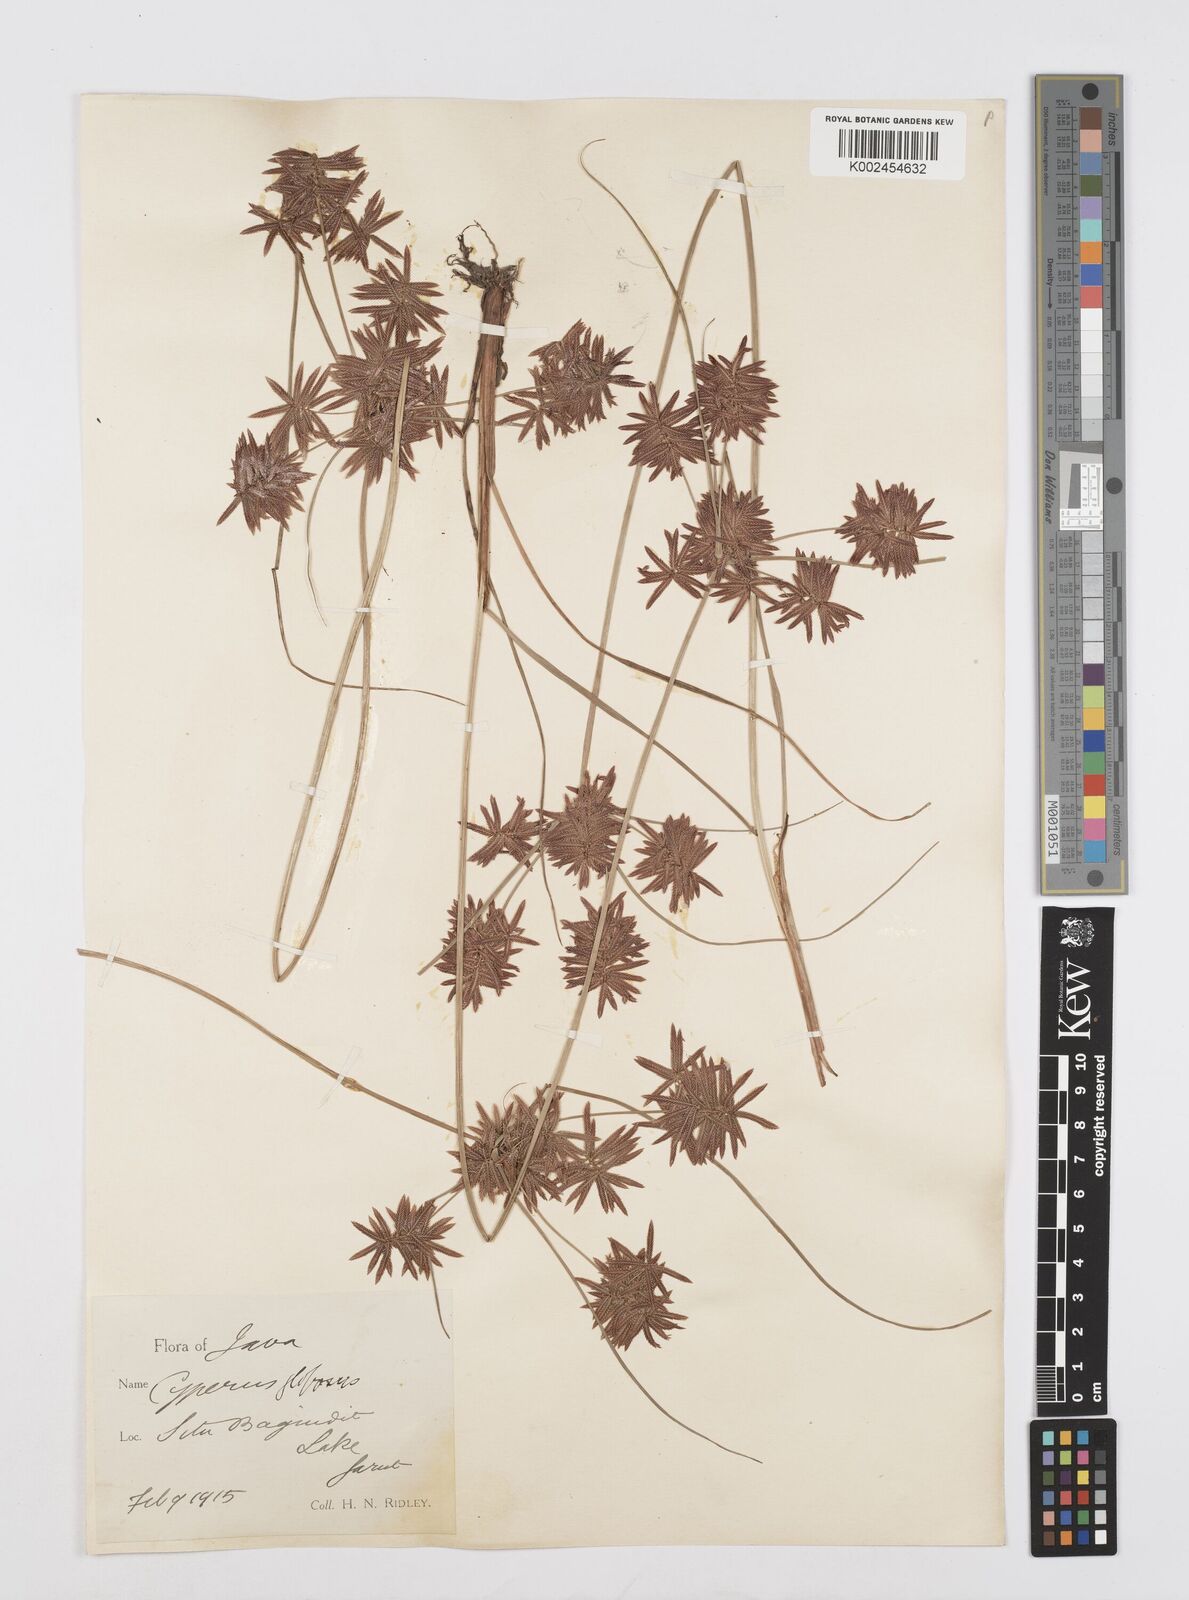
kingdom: Plantae
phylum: Tracheophyta
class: Liliopsida
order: Poales
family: Cyperaceae
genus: Cyperus
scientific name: Cyperus flavidus
